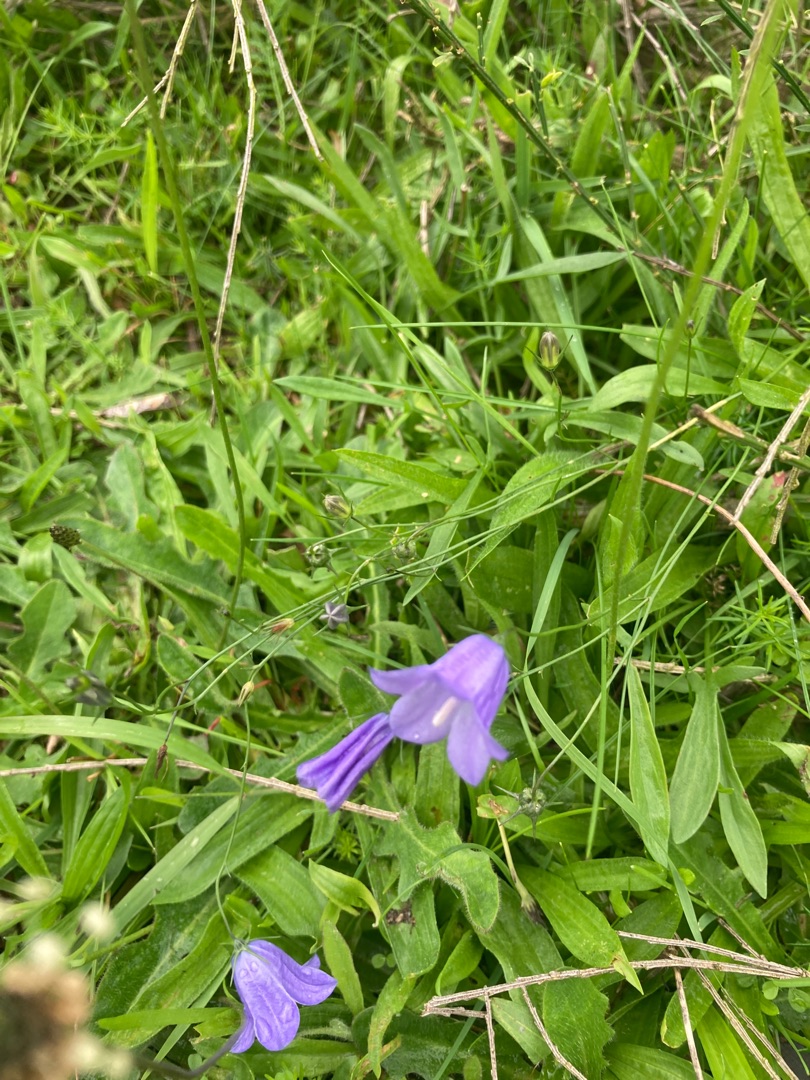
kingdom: Plantae
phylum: Tracheophyta
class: Magnoliopsida
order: Asterales
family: Campanulaceae
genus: Campanula
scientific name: Campanula rotundifolia
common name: Liden klokke
